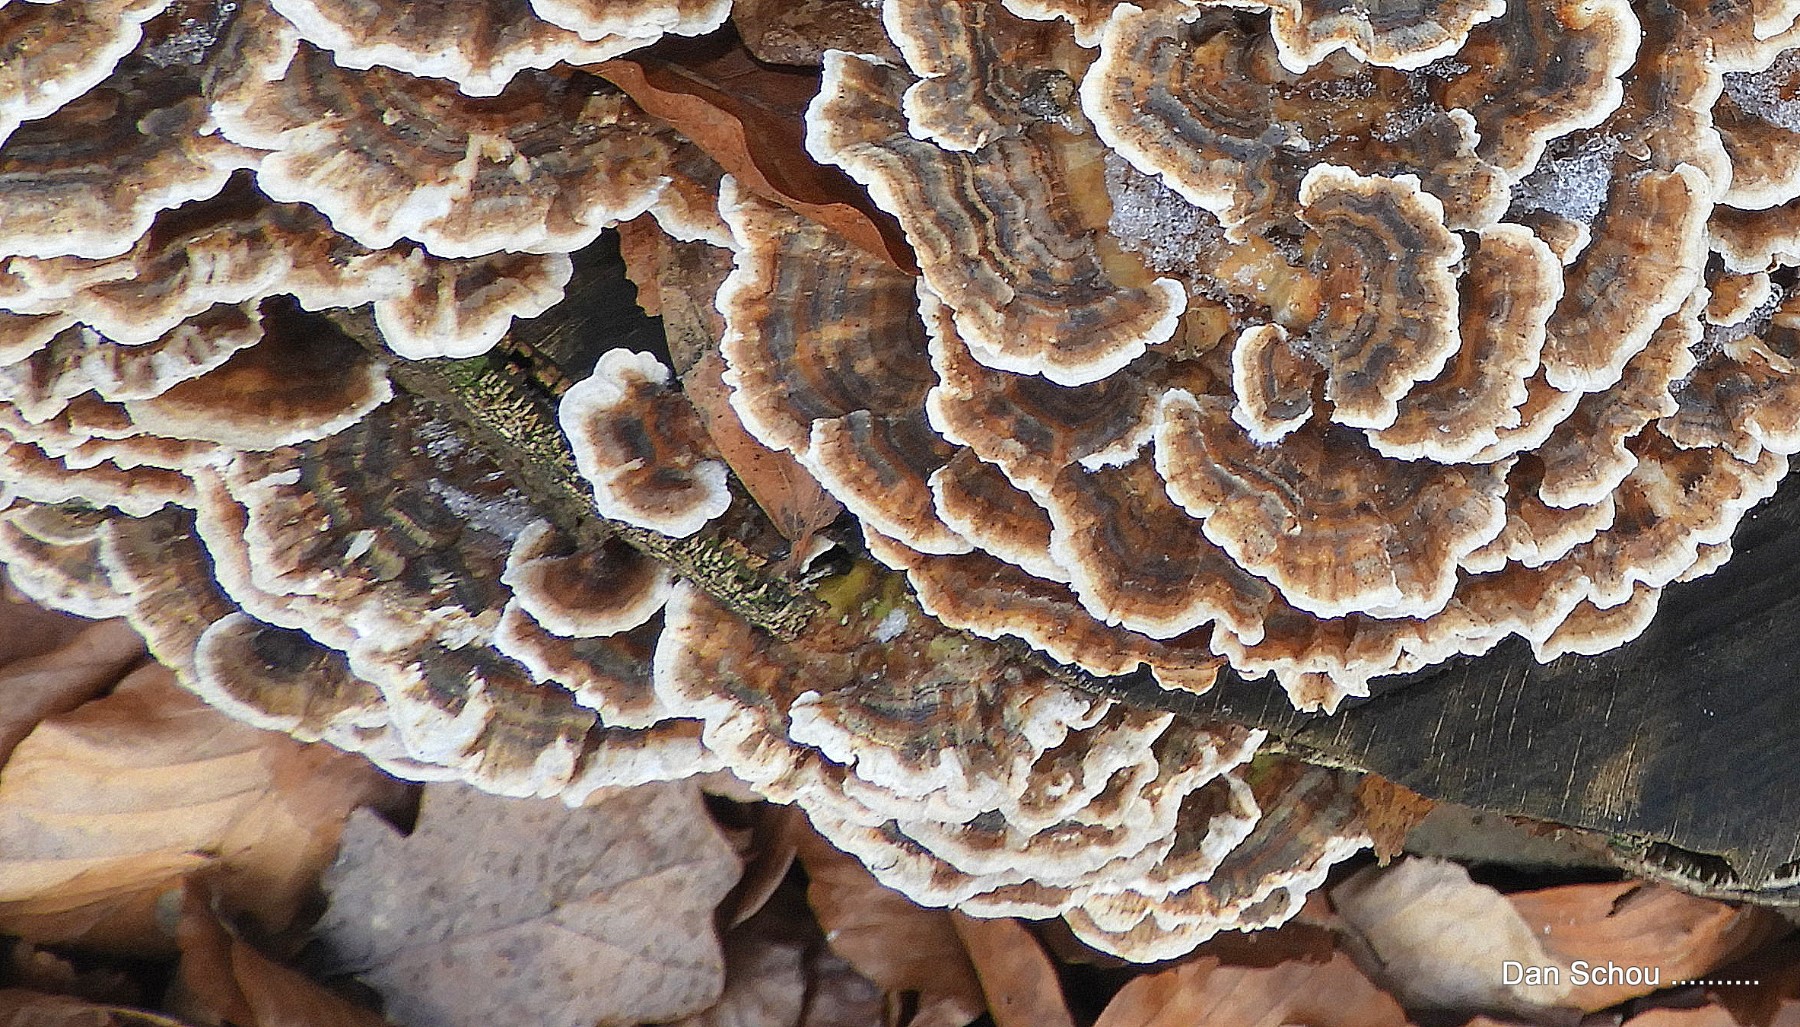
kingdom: Fungi
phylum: Basidiomycota
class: Agaricomycetes
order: Polyporales
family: Polyporaceae
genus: Trametes
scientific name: Trametes versicolor
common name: broget læderporesvamp
